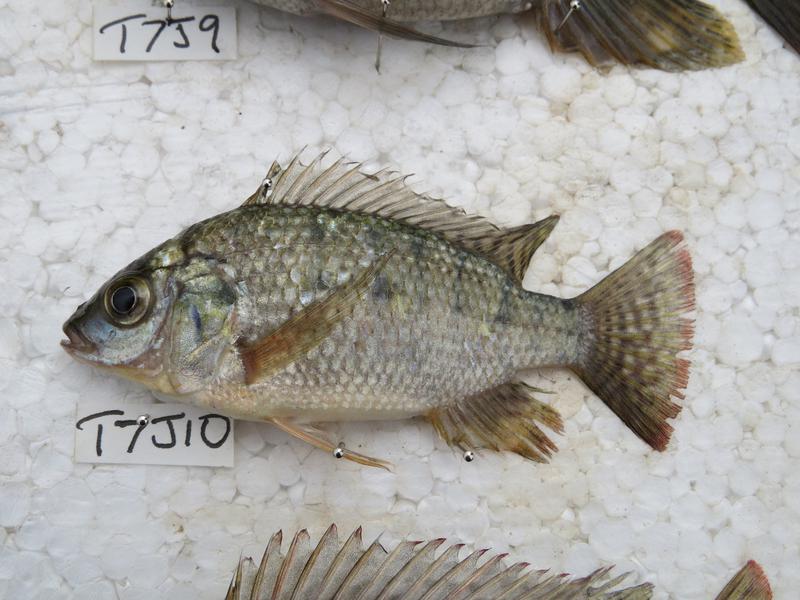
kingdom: Animalia
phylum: Chordata
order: Perciformes
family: Cichlidae
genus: Oreochromis
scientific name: Oreochromis shiranus
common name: Chilwa tilapia
